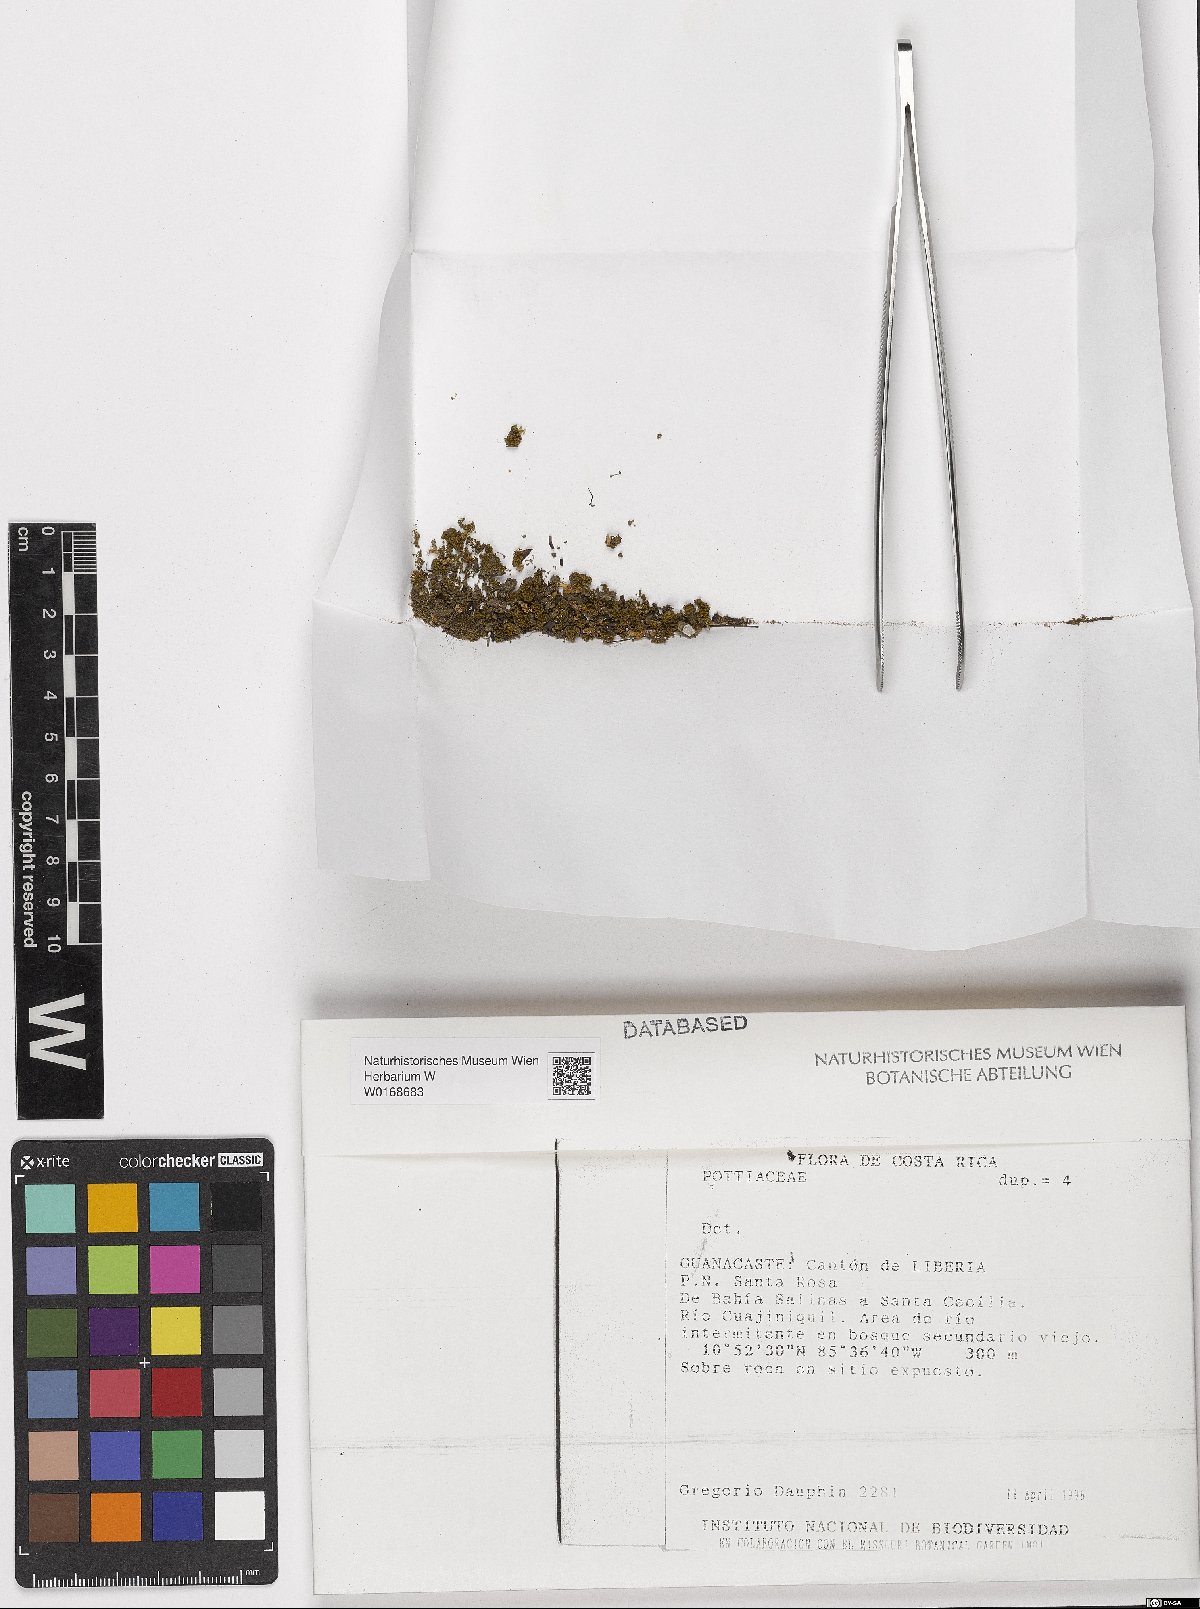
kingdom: Plantae
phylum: Bryophyta
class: Bryopsida
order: Pottiales
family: Pottiaceae
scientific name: Pottiaceae
